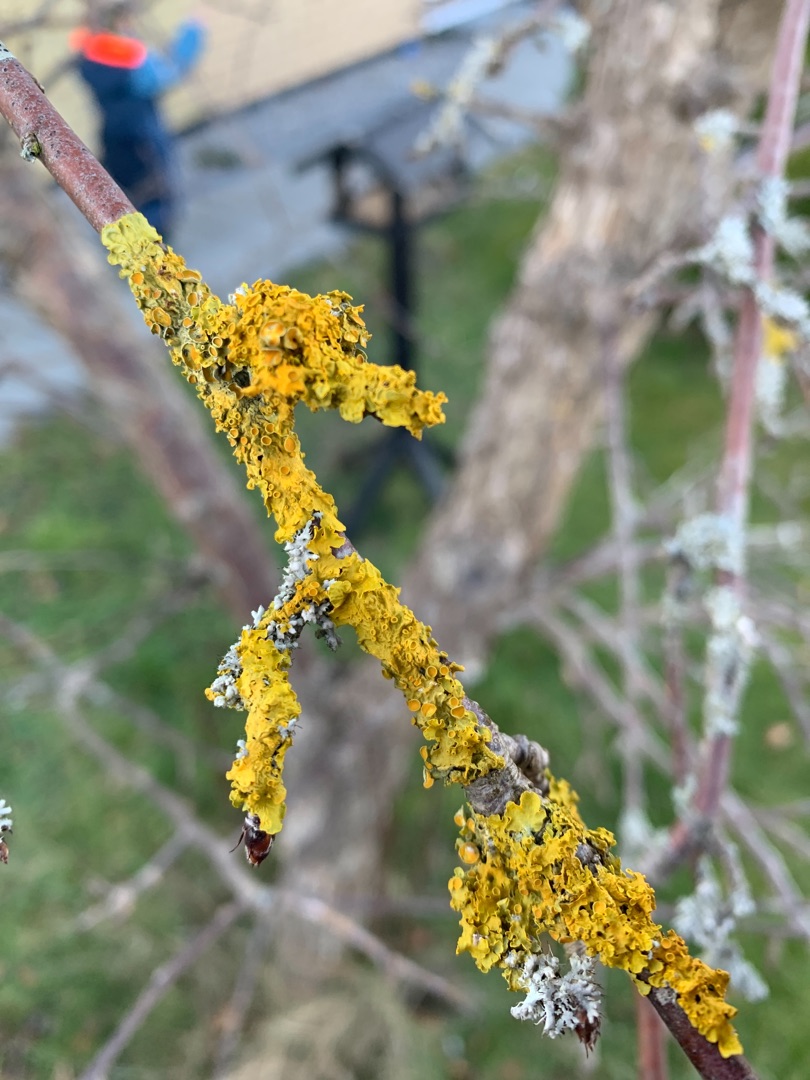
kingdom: Fungi
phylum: Ascomycota
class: Lecanoromycetes
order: Teloschistales
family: Teloschistaceae
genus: Xanthoria
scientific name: Xanthoria parietina
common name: Almindelig væggelav
